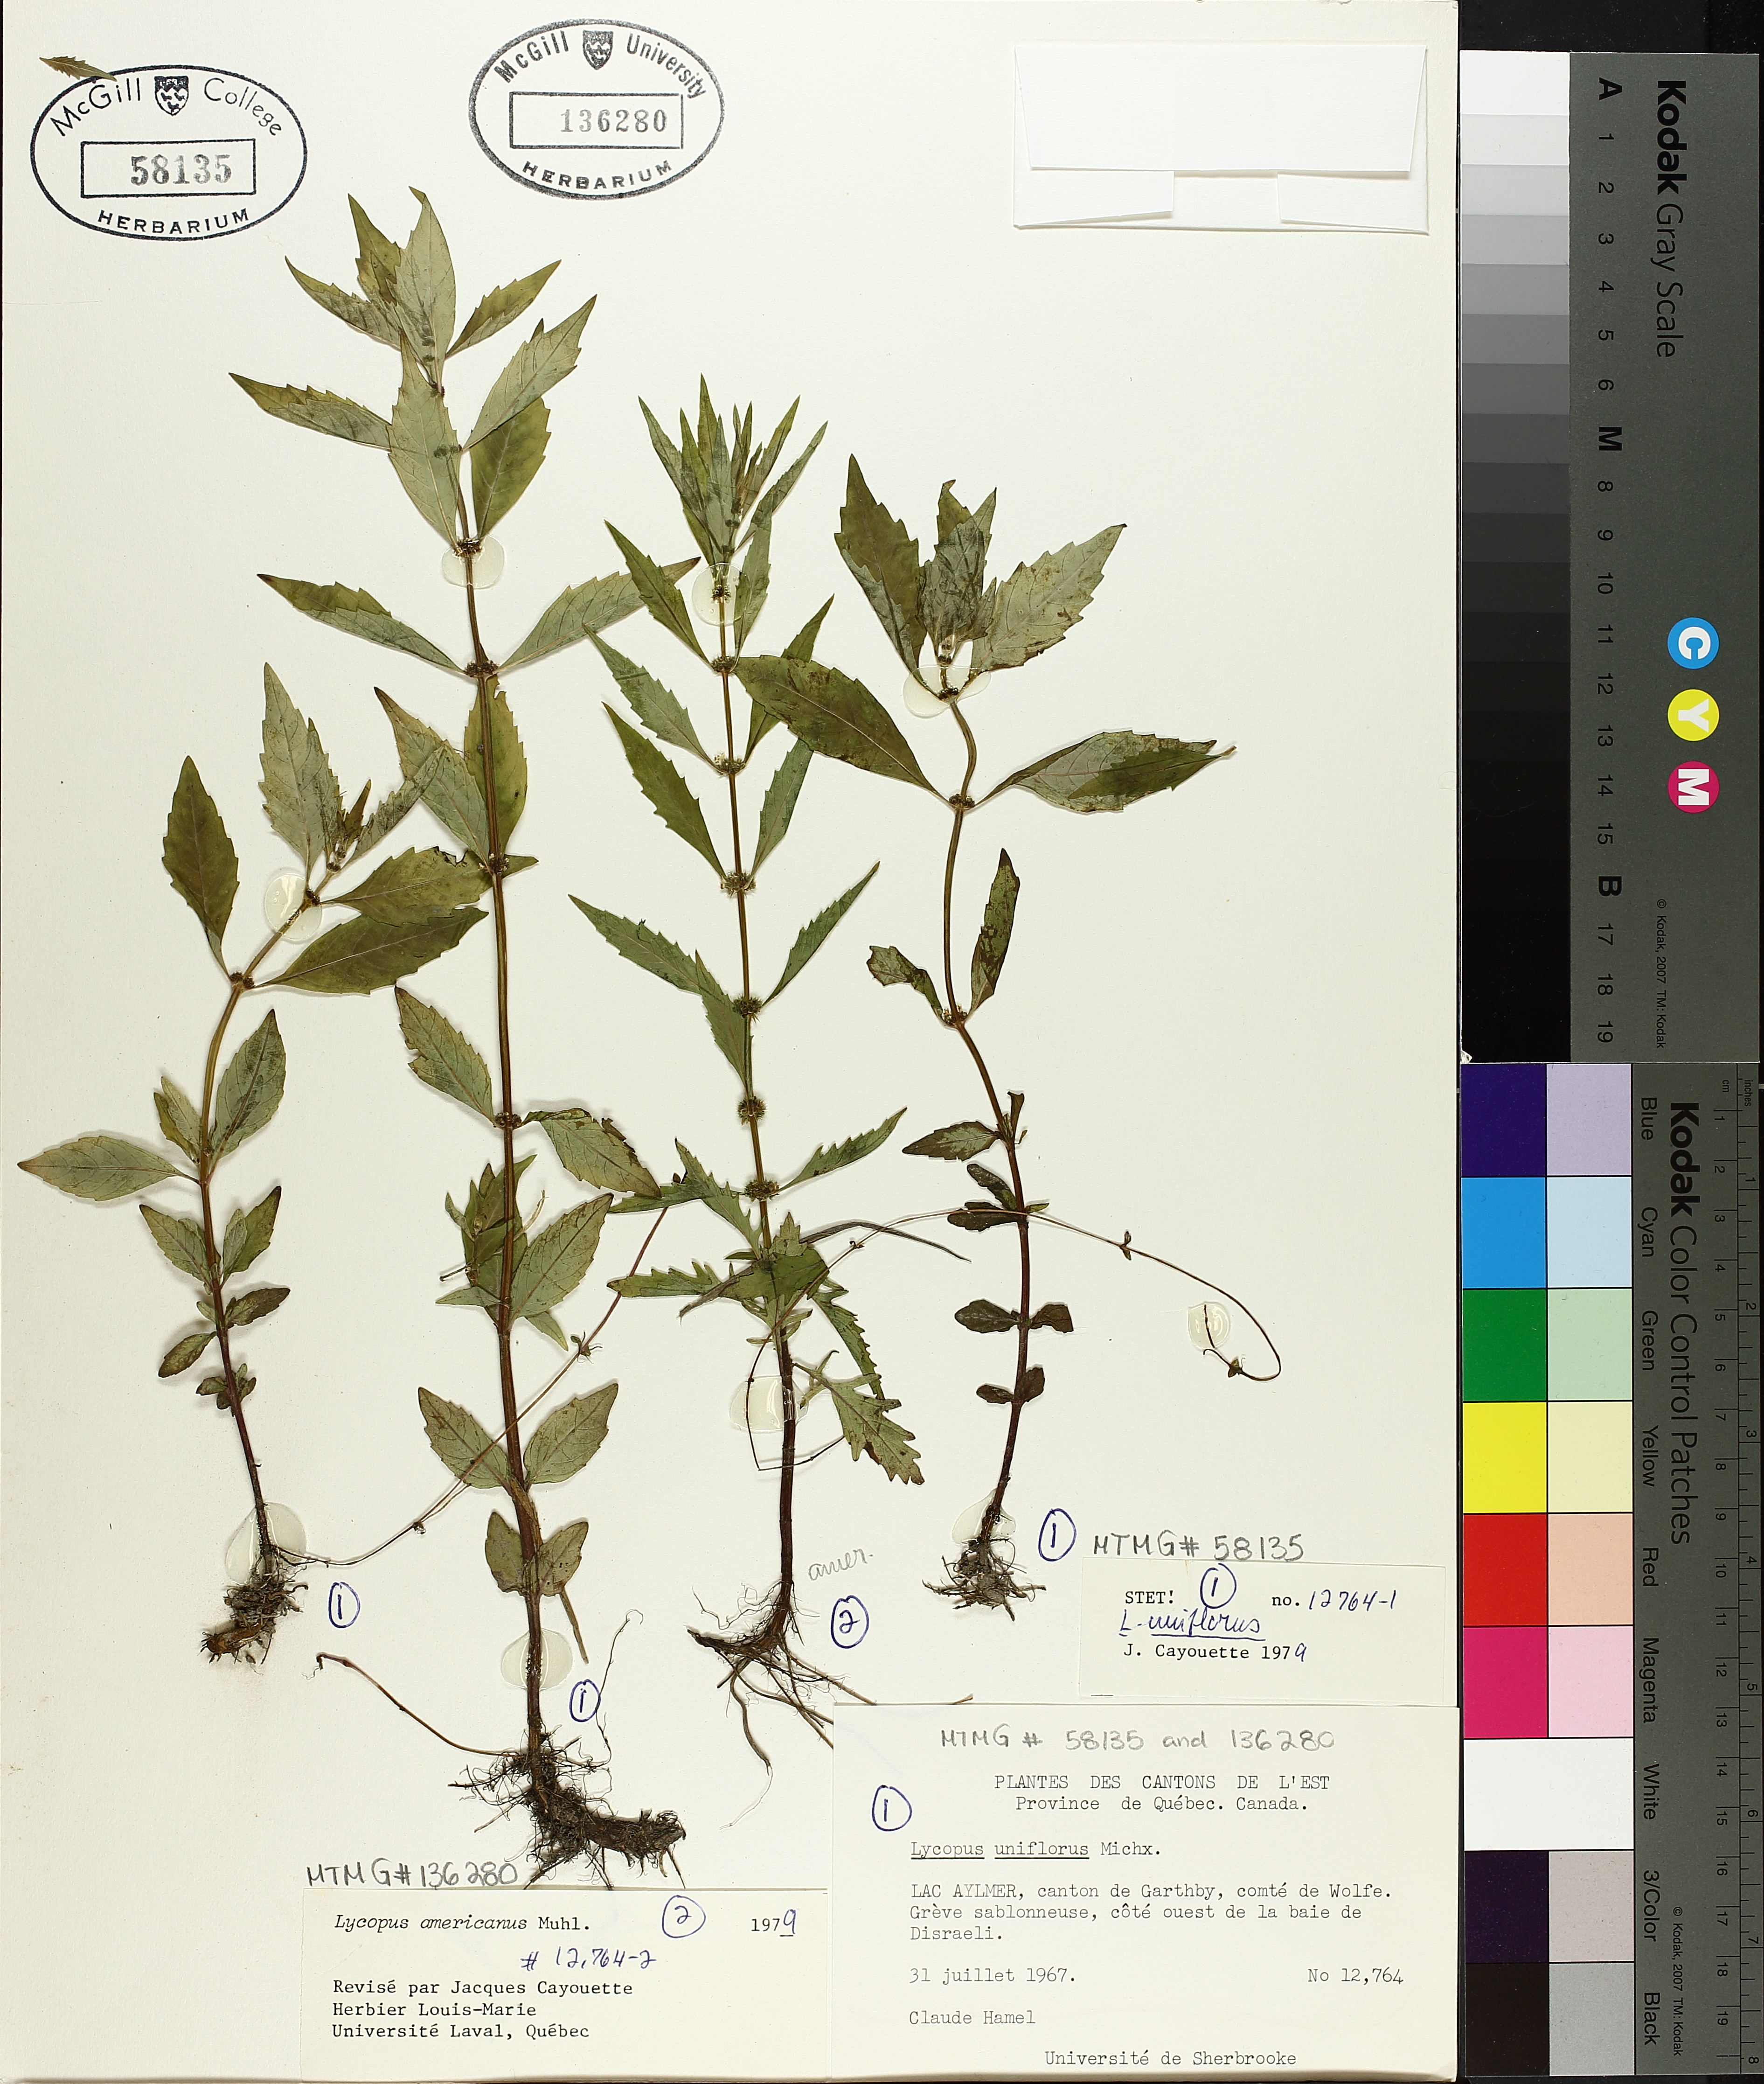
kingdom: Plantae
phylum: Tracheophyta
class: Magnoliopsida
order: Lamiales
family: Lamiaceae
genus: Lycopus
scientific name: Lycopus uniflorus
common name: Northern bugleweed
